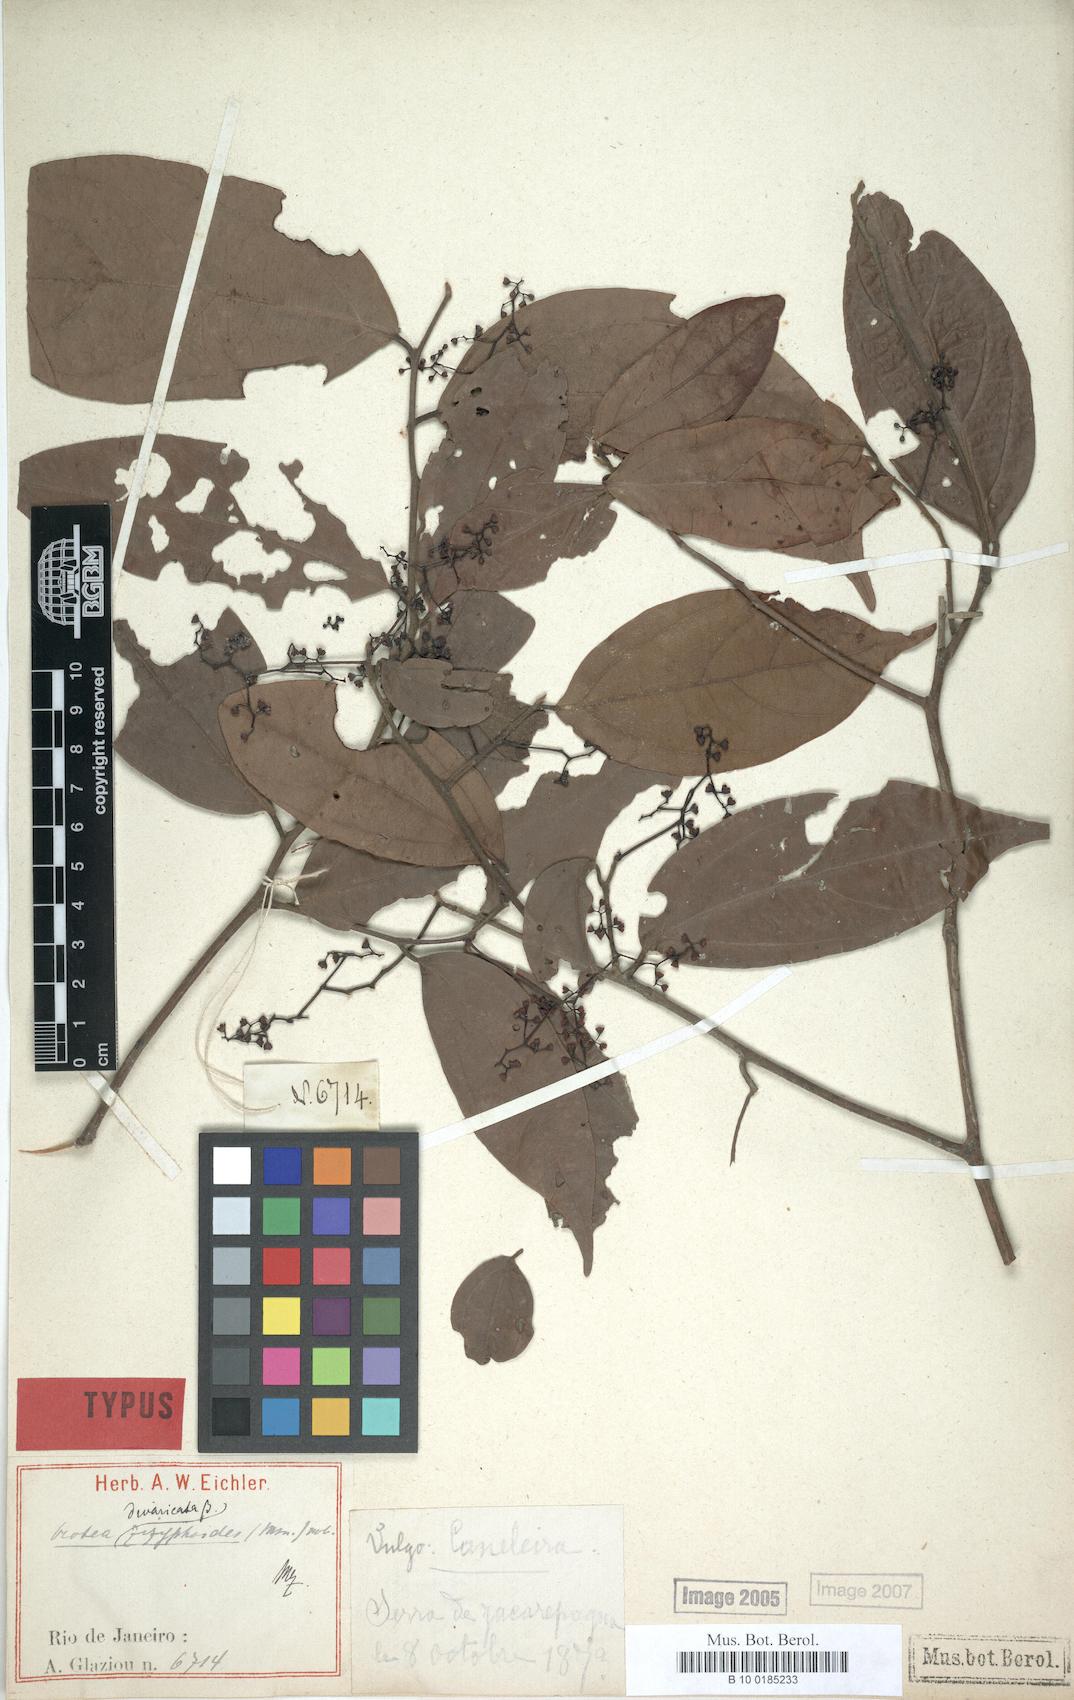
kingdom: Plantae
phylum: Tracheophyta
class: Magnoliopsida
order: Laurales
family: Lauraceae
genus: Ocotea
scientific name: Ocotea divaricata
